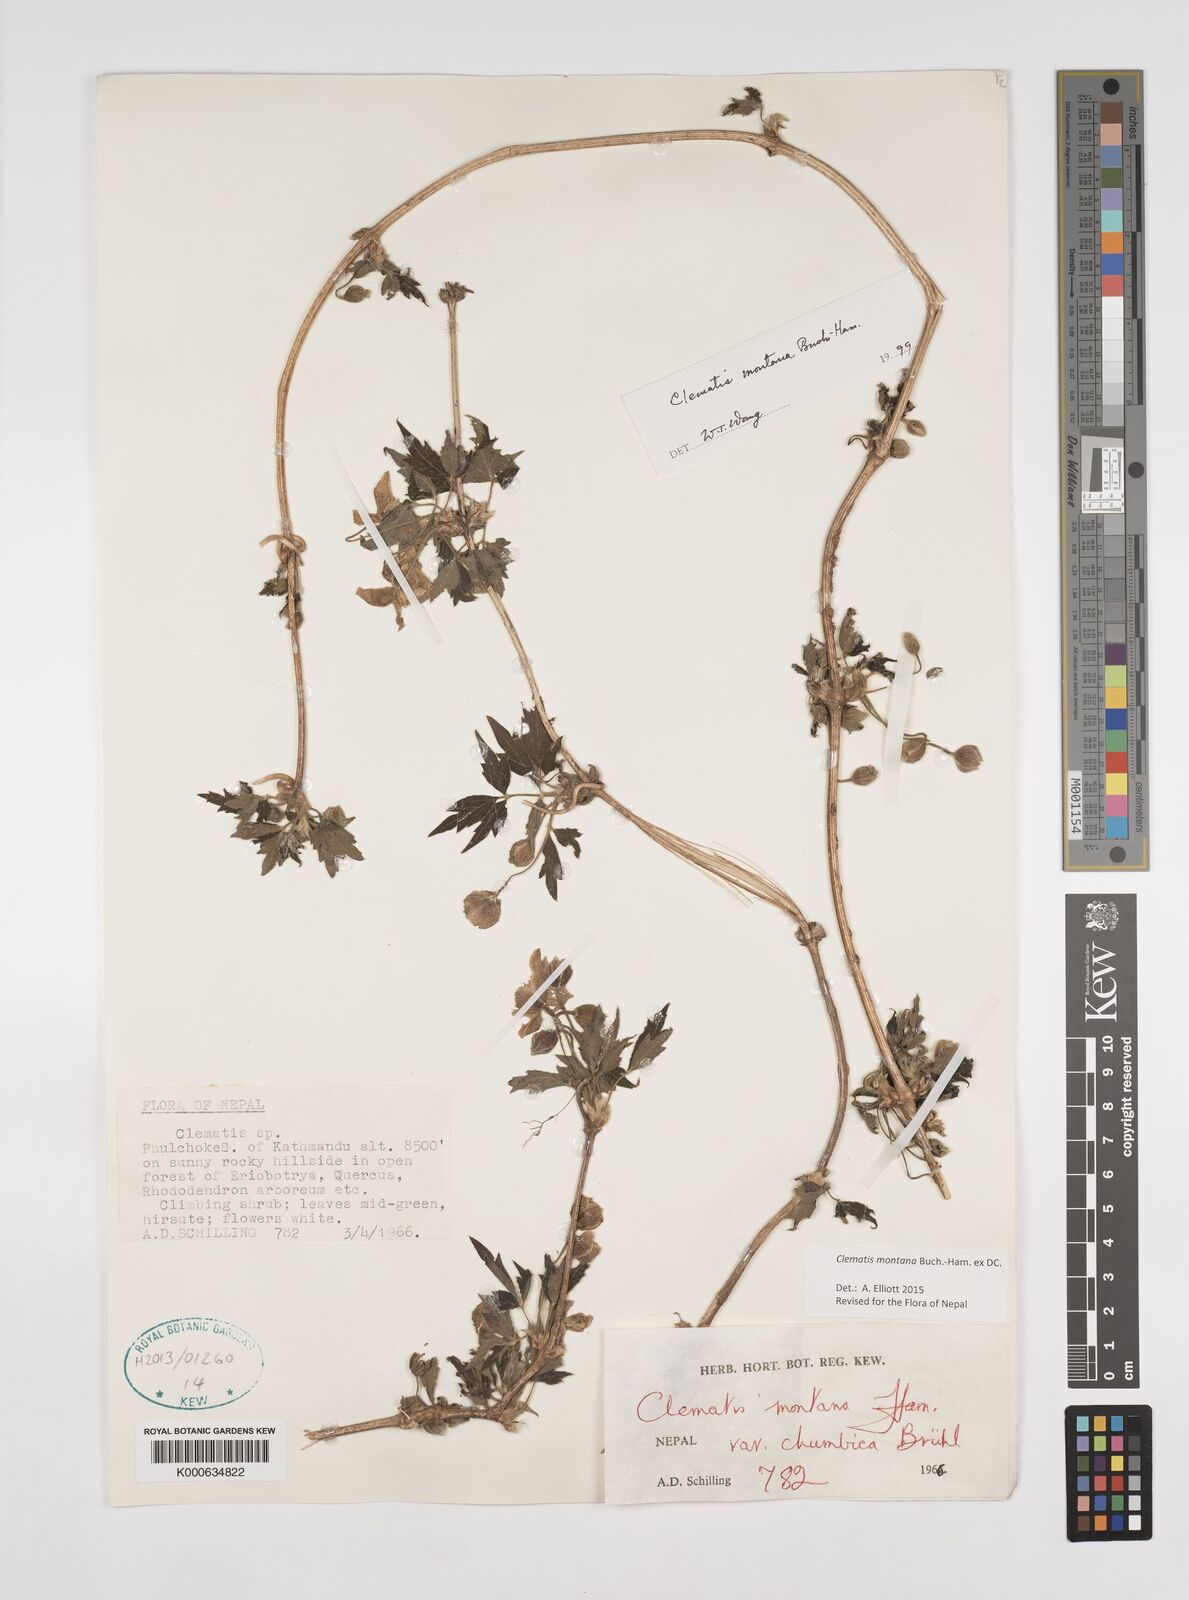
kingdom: Plantae
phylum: Tracheophyta
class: Magnoliopsida
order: Ranunculales
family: Ranunculaceae
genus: Clematis
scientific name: Clematis montana
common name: Himalayan clematis
